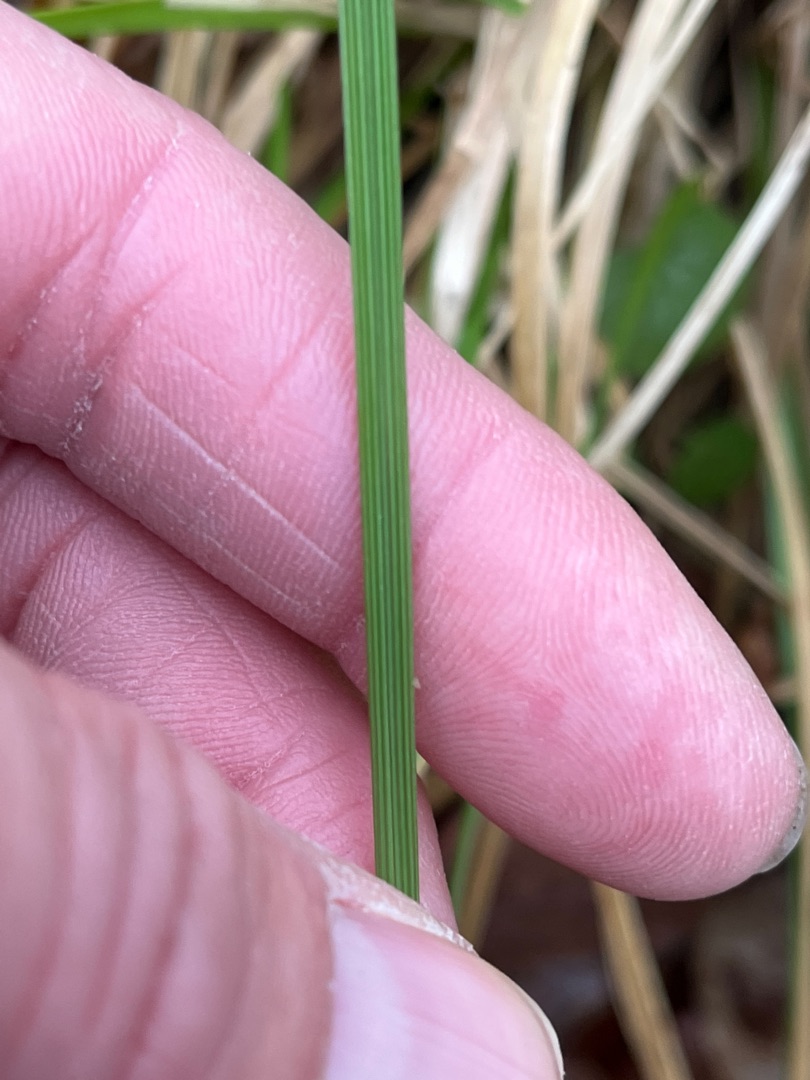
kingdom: Plantae
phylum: Tracheophyta
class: Liliopsida
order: Poales
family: Poaceae
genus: Deschampsia
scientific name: Deschampsia cespitosa
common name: Mose-bunke
